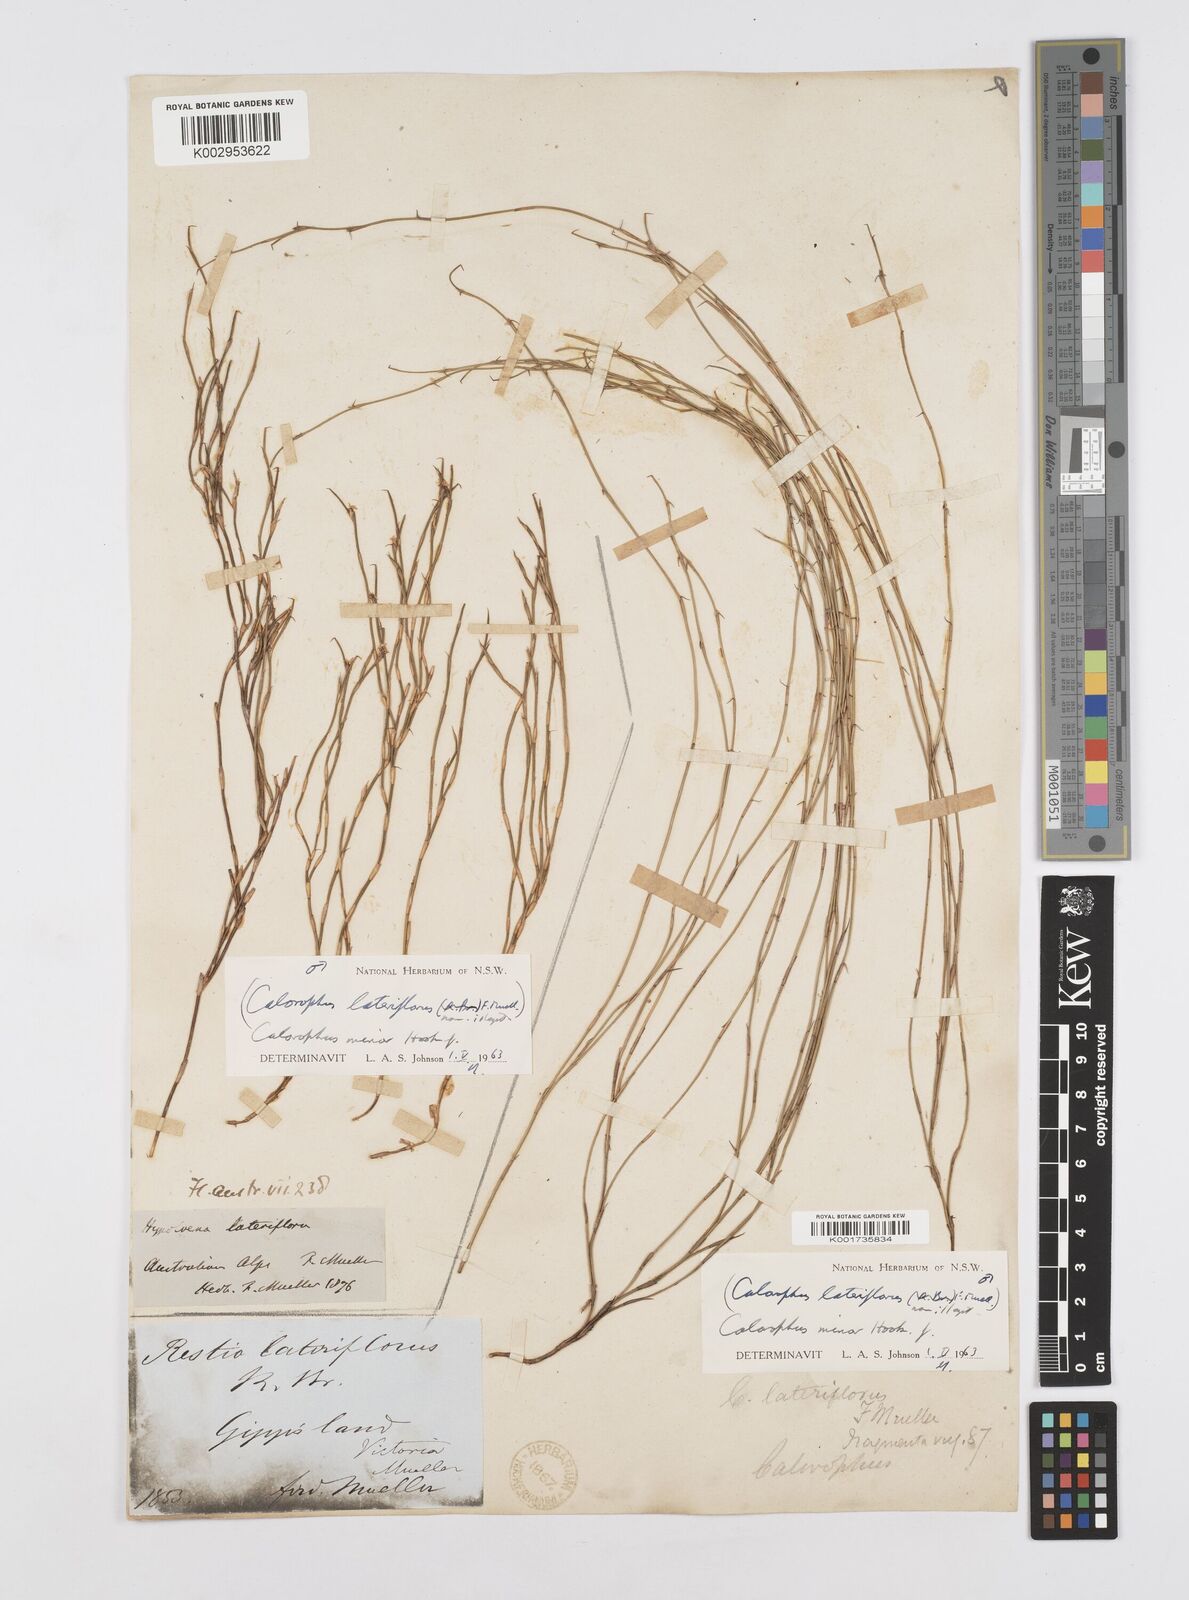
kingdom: Plantae
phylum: Tracheophyta
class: Liliopsida
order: Poales
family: Restionaceae
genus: Empodisma
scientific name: Empodisma minus
